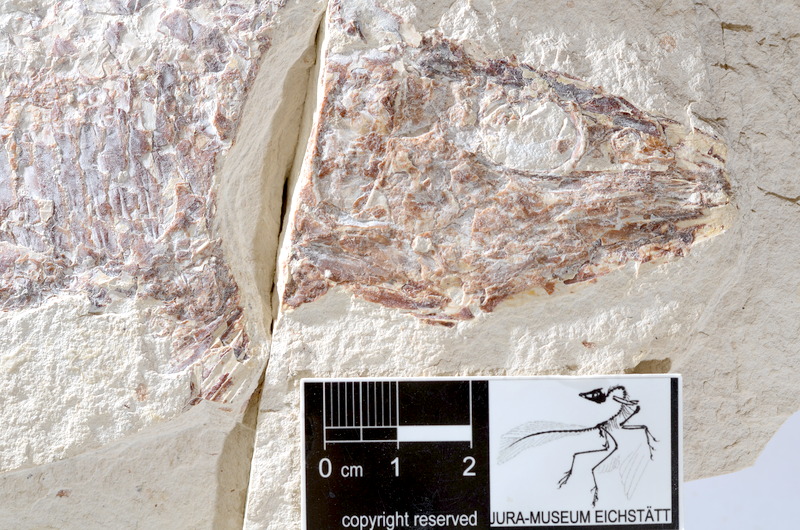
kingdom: Animalia
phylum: Chordata
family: Aspidorhynchidae
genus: Aspidorhynchus
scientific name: Aspidorhynchus acutirostris
